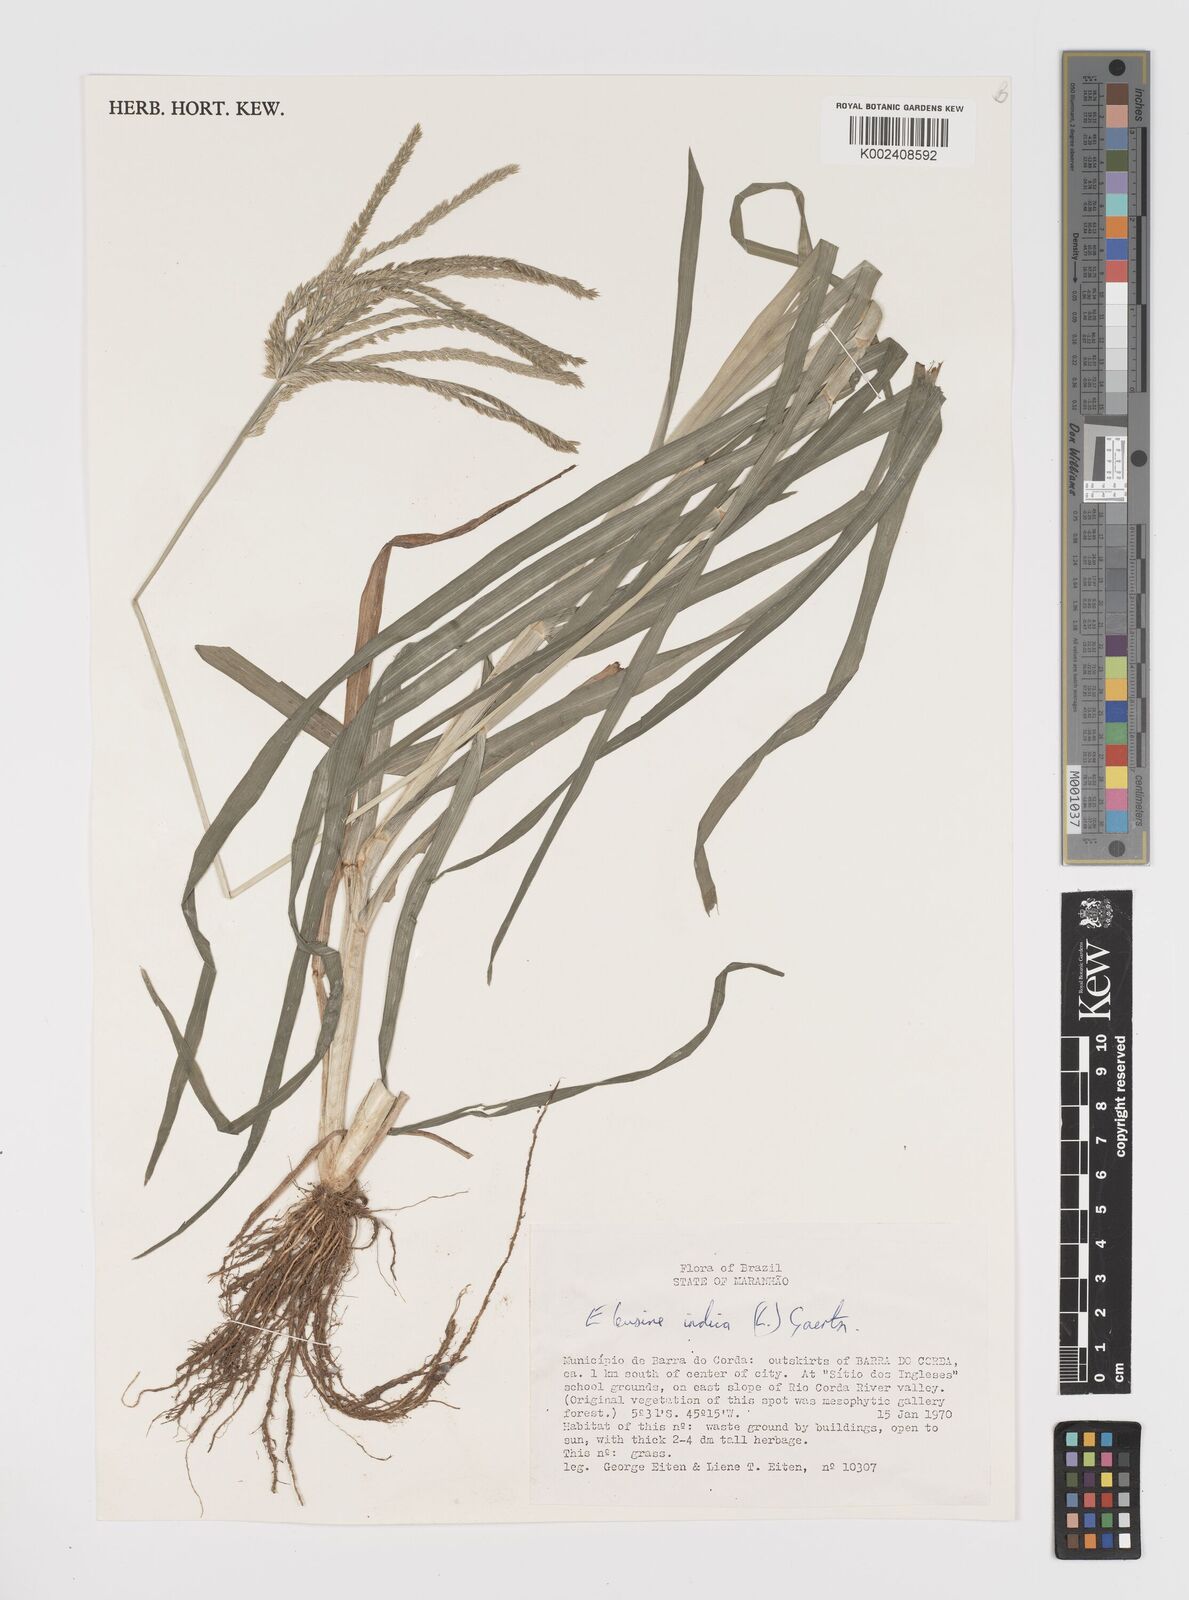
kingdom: Plantae
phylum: Tracheophyta
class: Liliopsida
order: Poales
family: Poaceae
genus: Eleusine
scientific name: Eleusine indica
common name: Yard-grass
